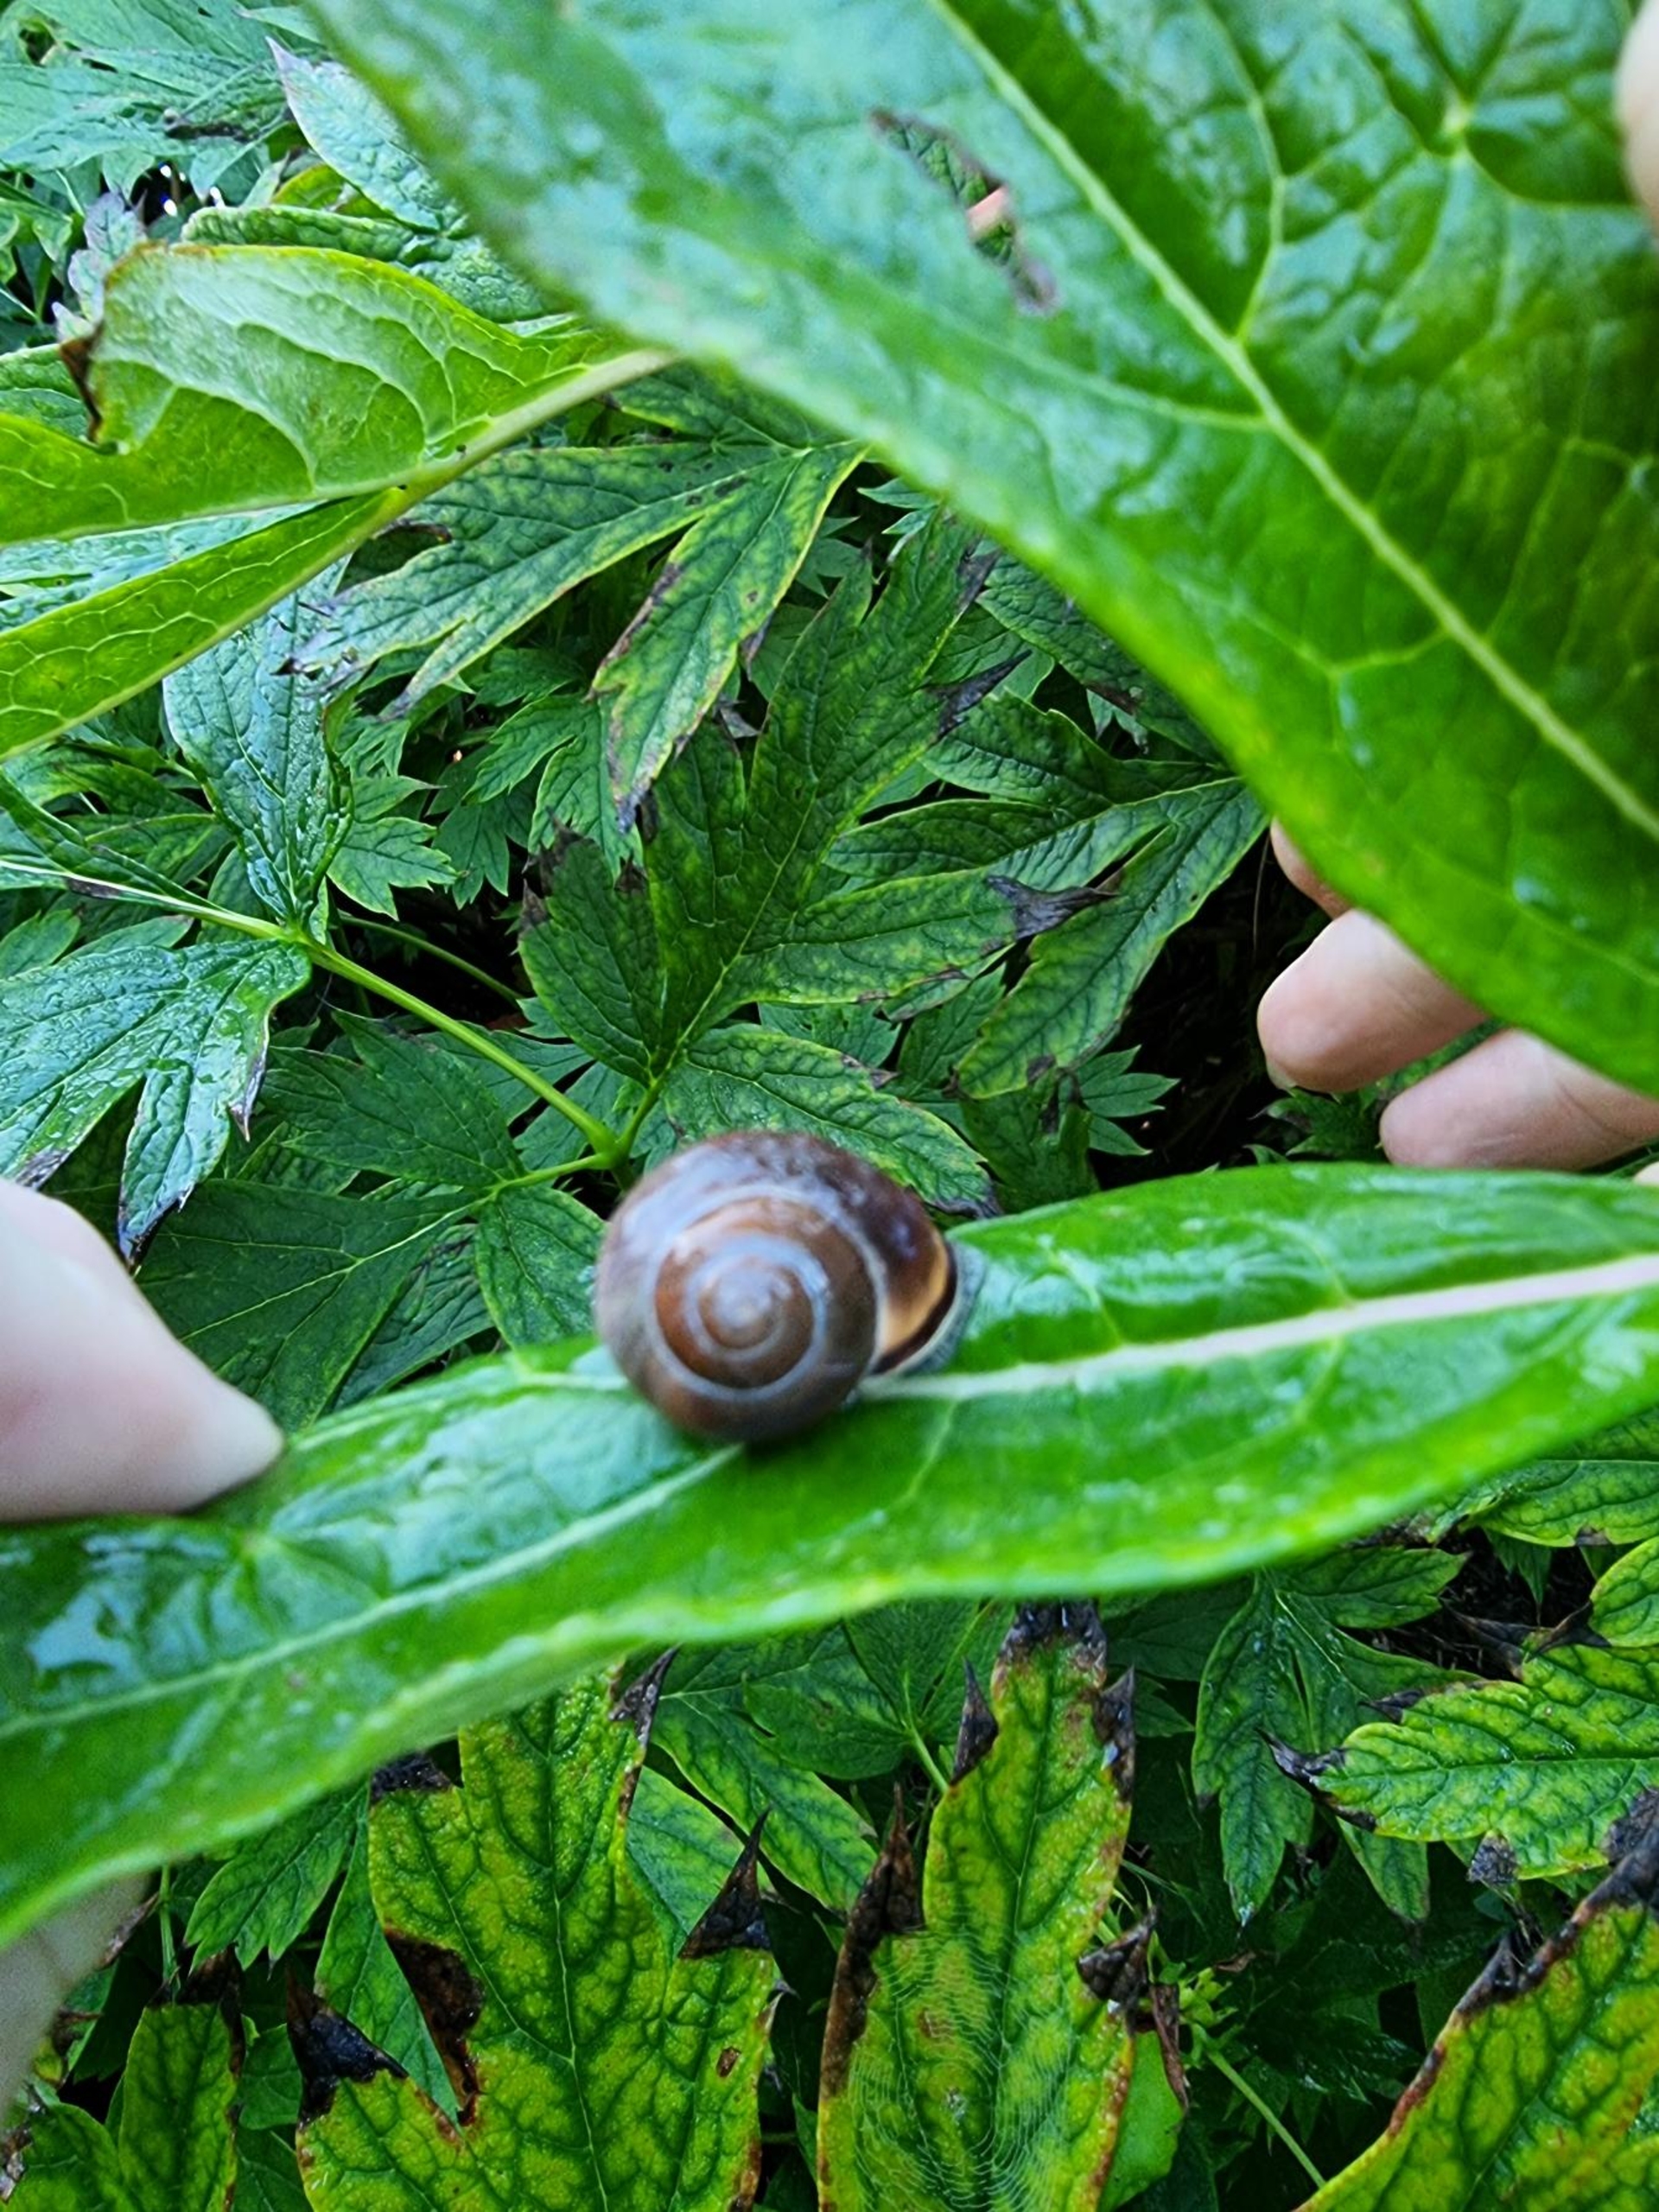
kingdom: Animalia
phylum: Mollusca
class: Gastropoda
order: Stylommatophora
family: Helicidae
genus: Cepaea
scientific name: Cepaea nemoralis
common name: Lundsnegl
